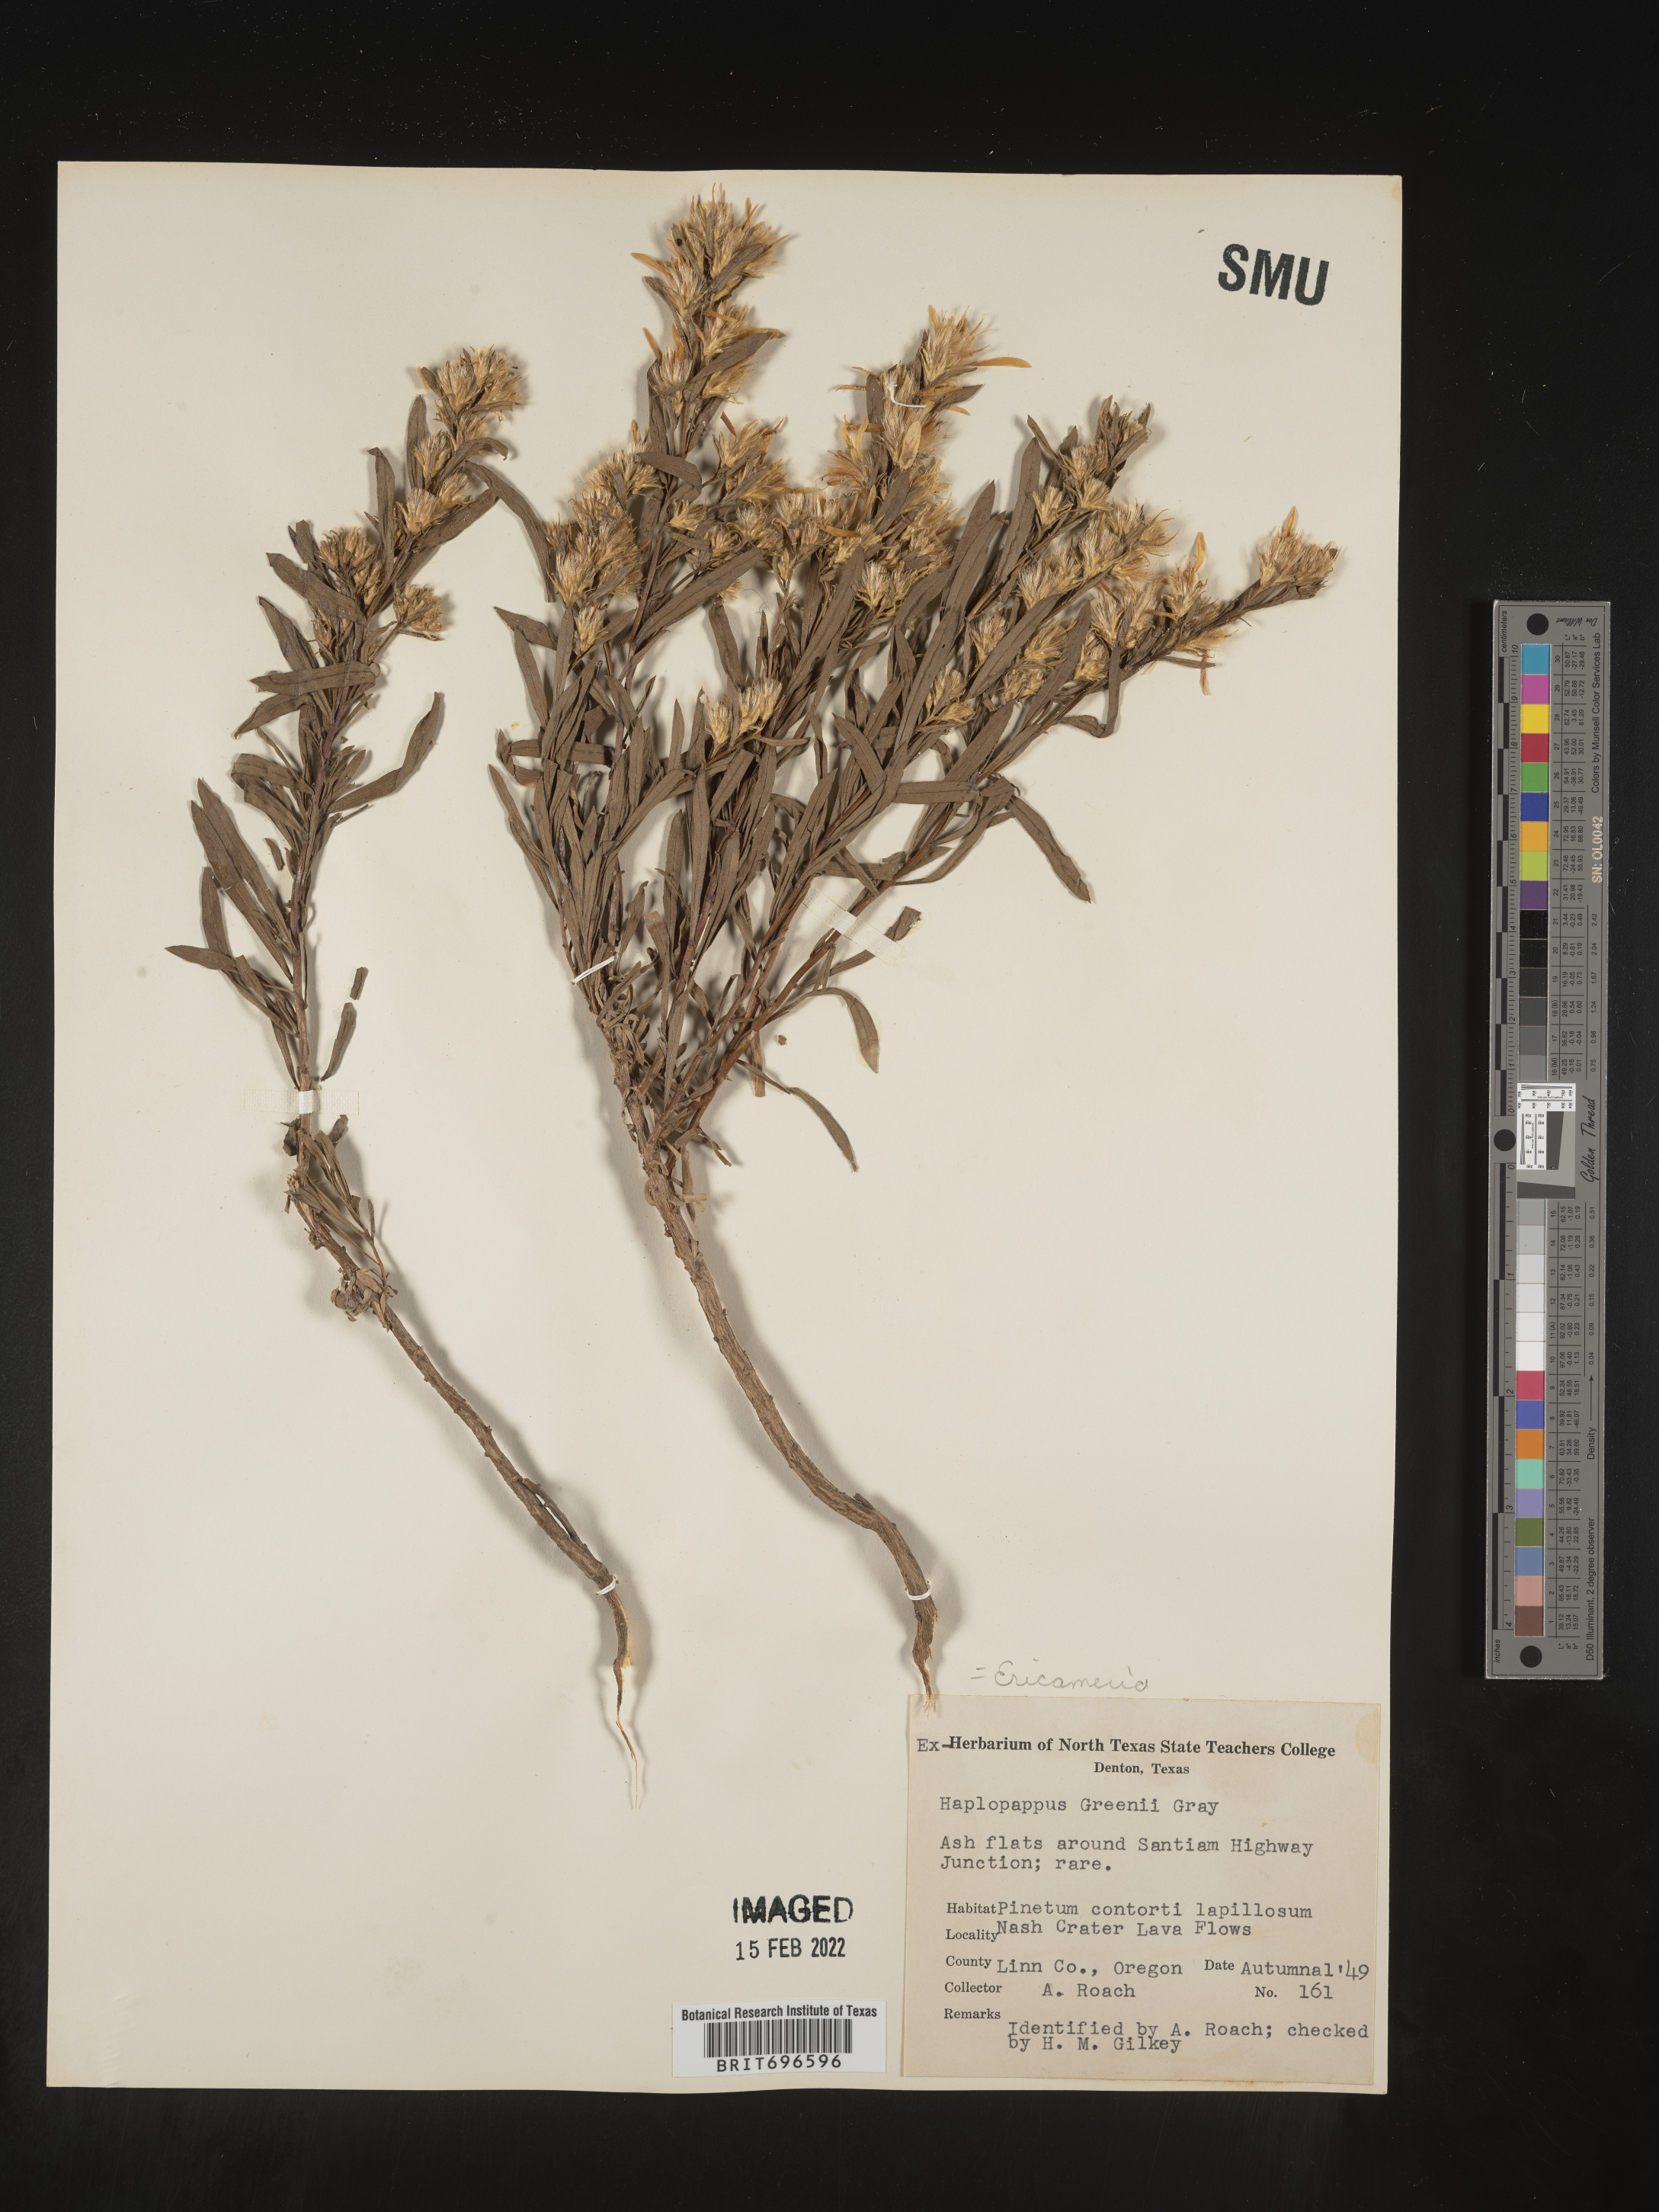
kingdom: Plantae
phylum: Tracheophyta
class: Magnoliopsida
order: Asterales
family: Asteraceae
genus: Ericameria
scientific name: Ericameria greenei
